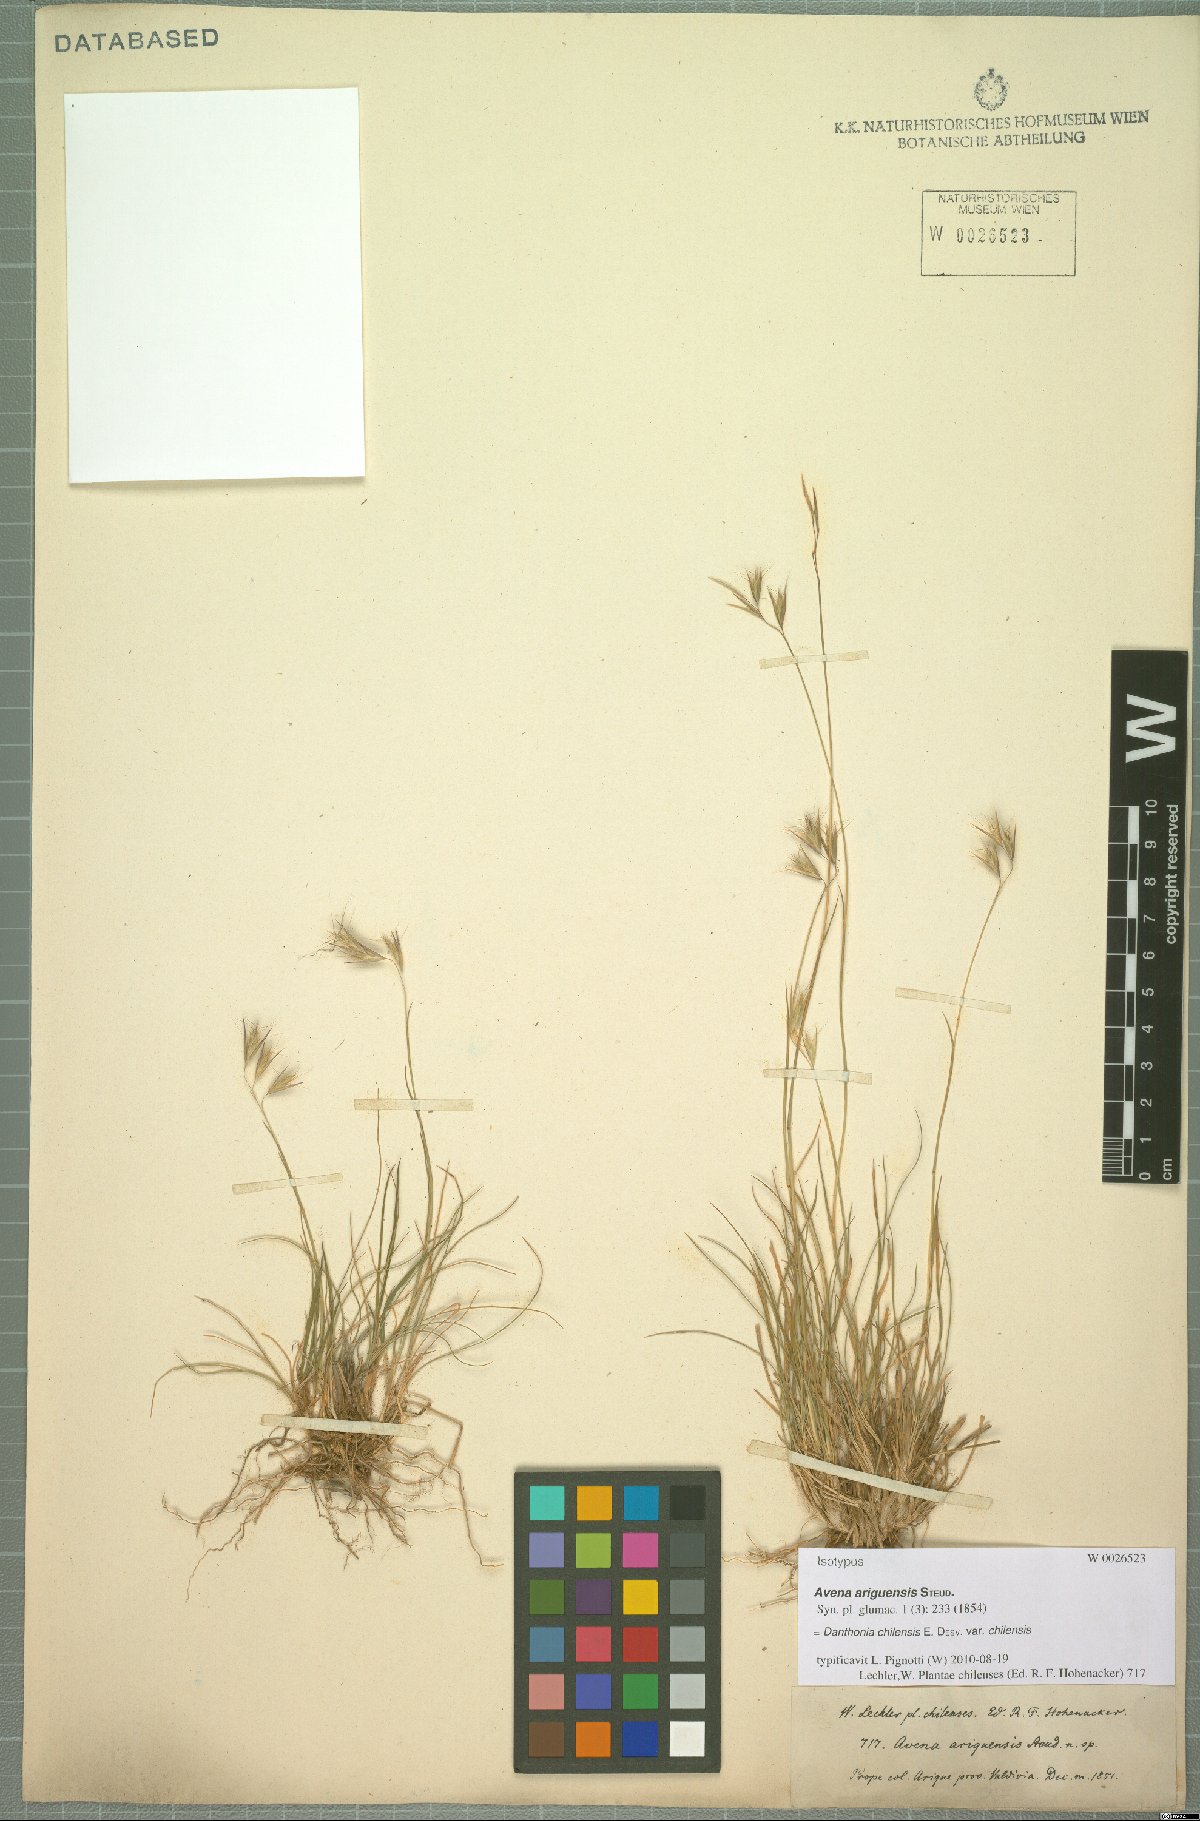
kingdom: Plantae
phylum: Tracheophyta
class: Liliopsida
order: Poales
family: Poaceae
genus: Danthonia
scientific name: Danthonia chilensis
